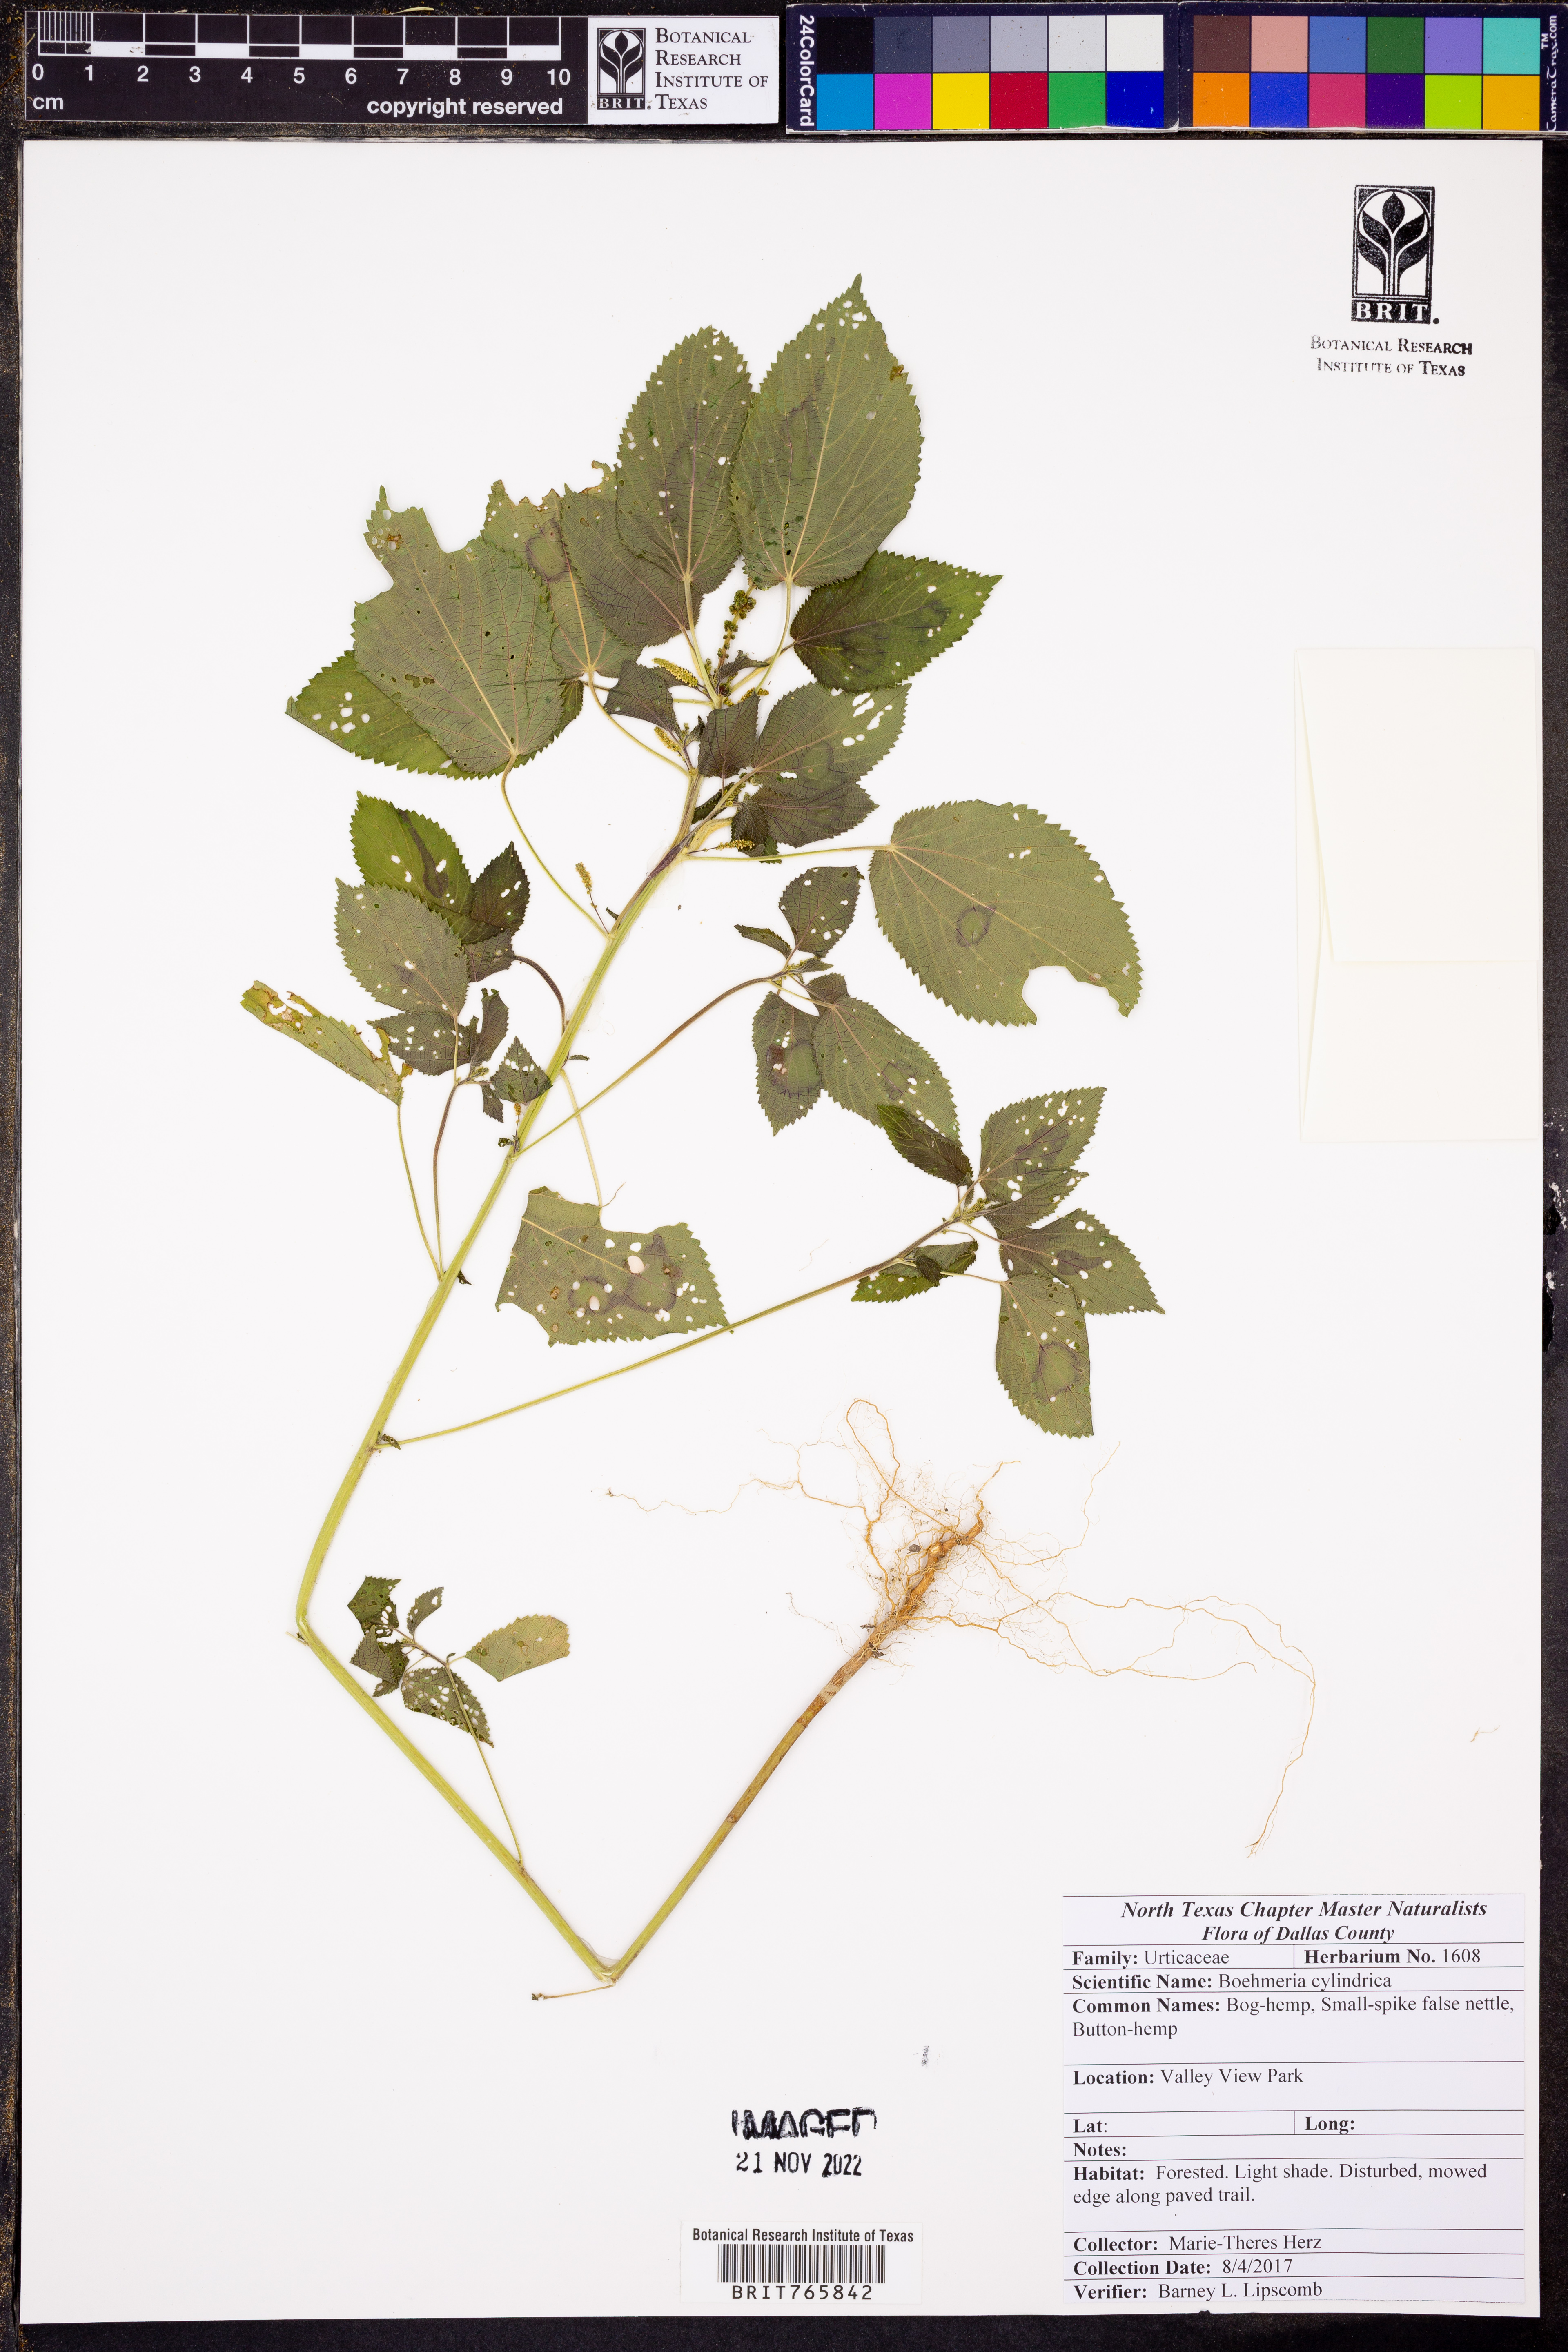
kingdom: Plantae
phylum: Tracheophyta
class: Magnoliopsida
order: Rosales
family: Urticaceae
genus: Boehmeria
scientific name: Boehmeria cylindrica
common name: Bog-hemp
